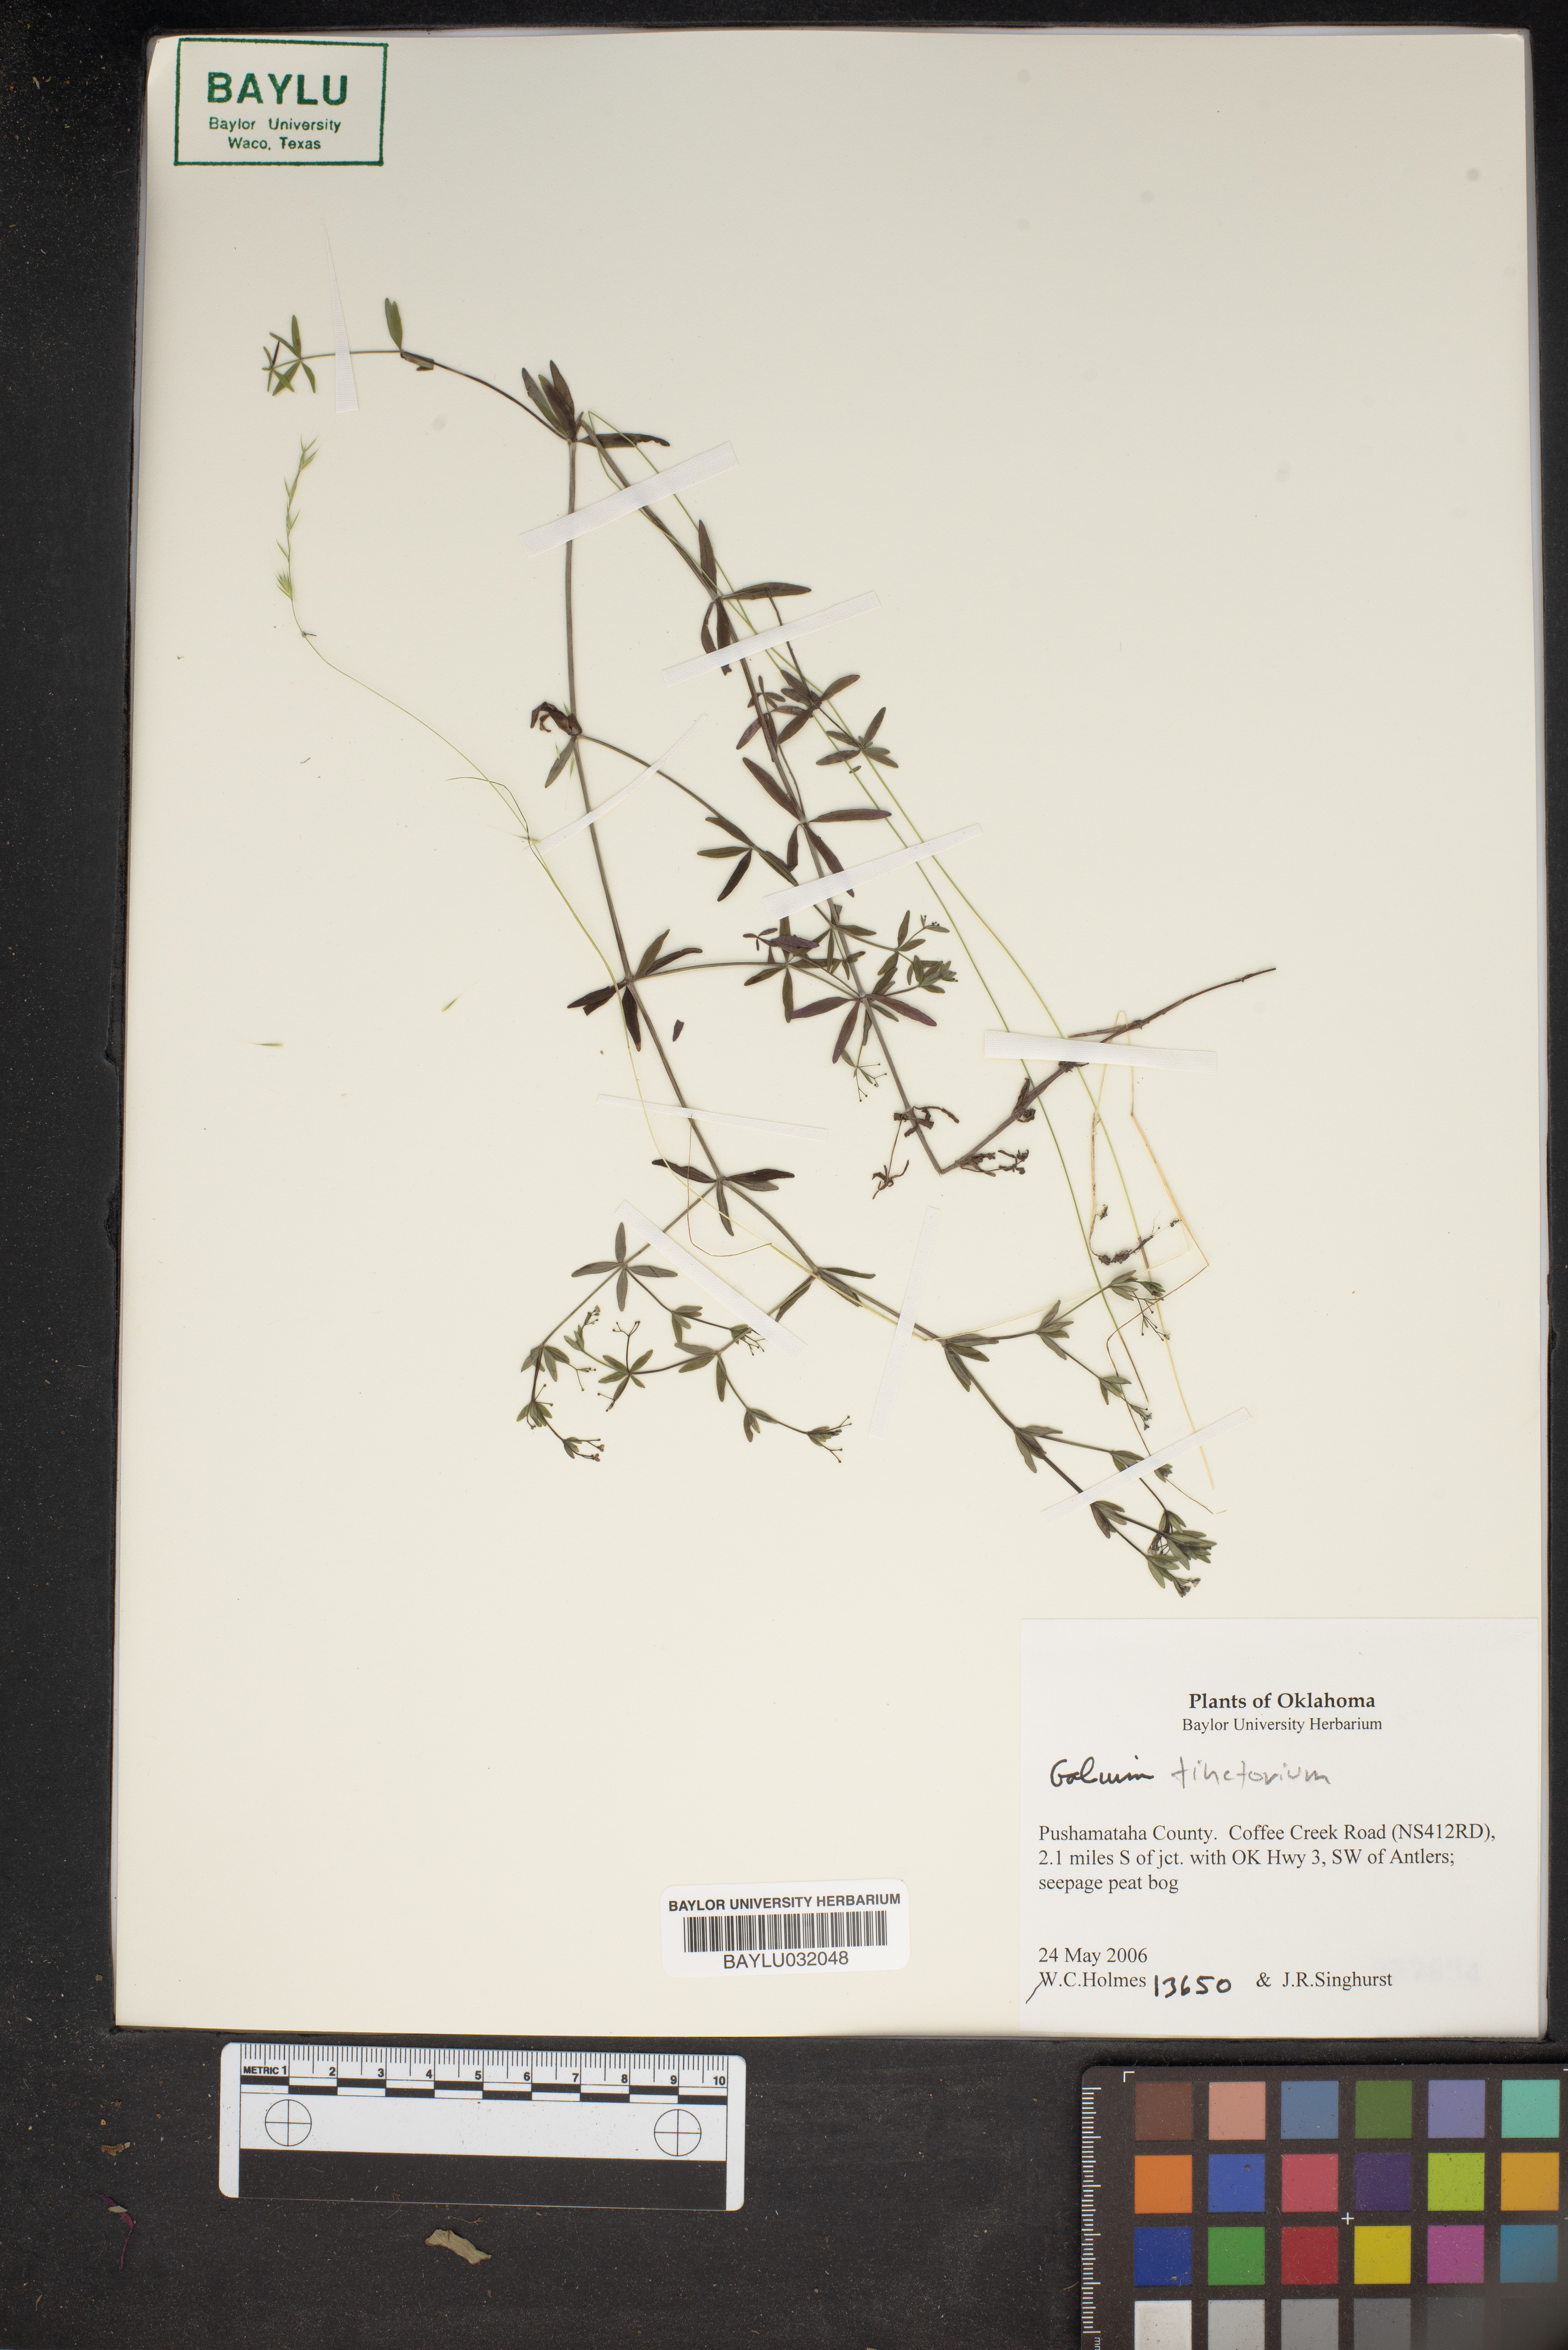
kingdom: Plantae
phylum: Tracheophyta
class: Magnoliopsida
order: Gentianales
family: Rubiaceae
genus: Asperula
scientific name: Asperula tinctoria
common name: Dyer's woodruff
